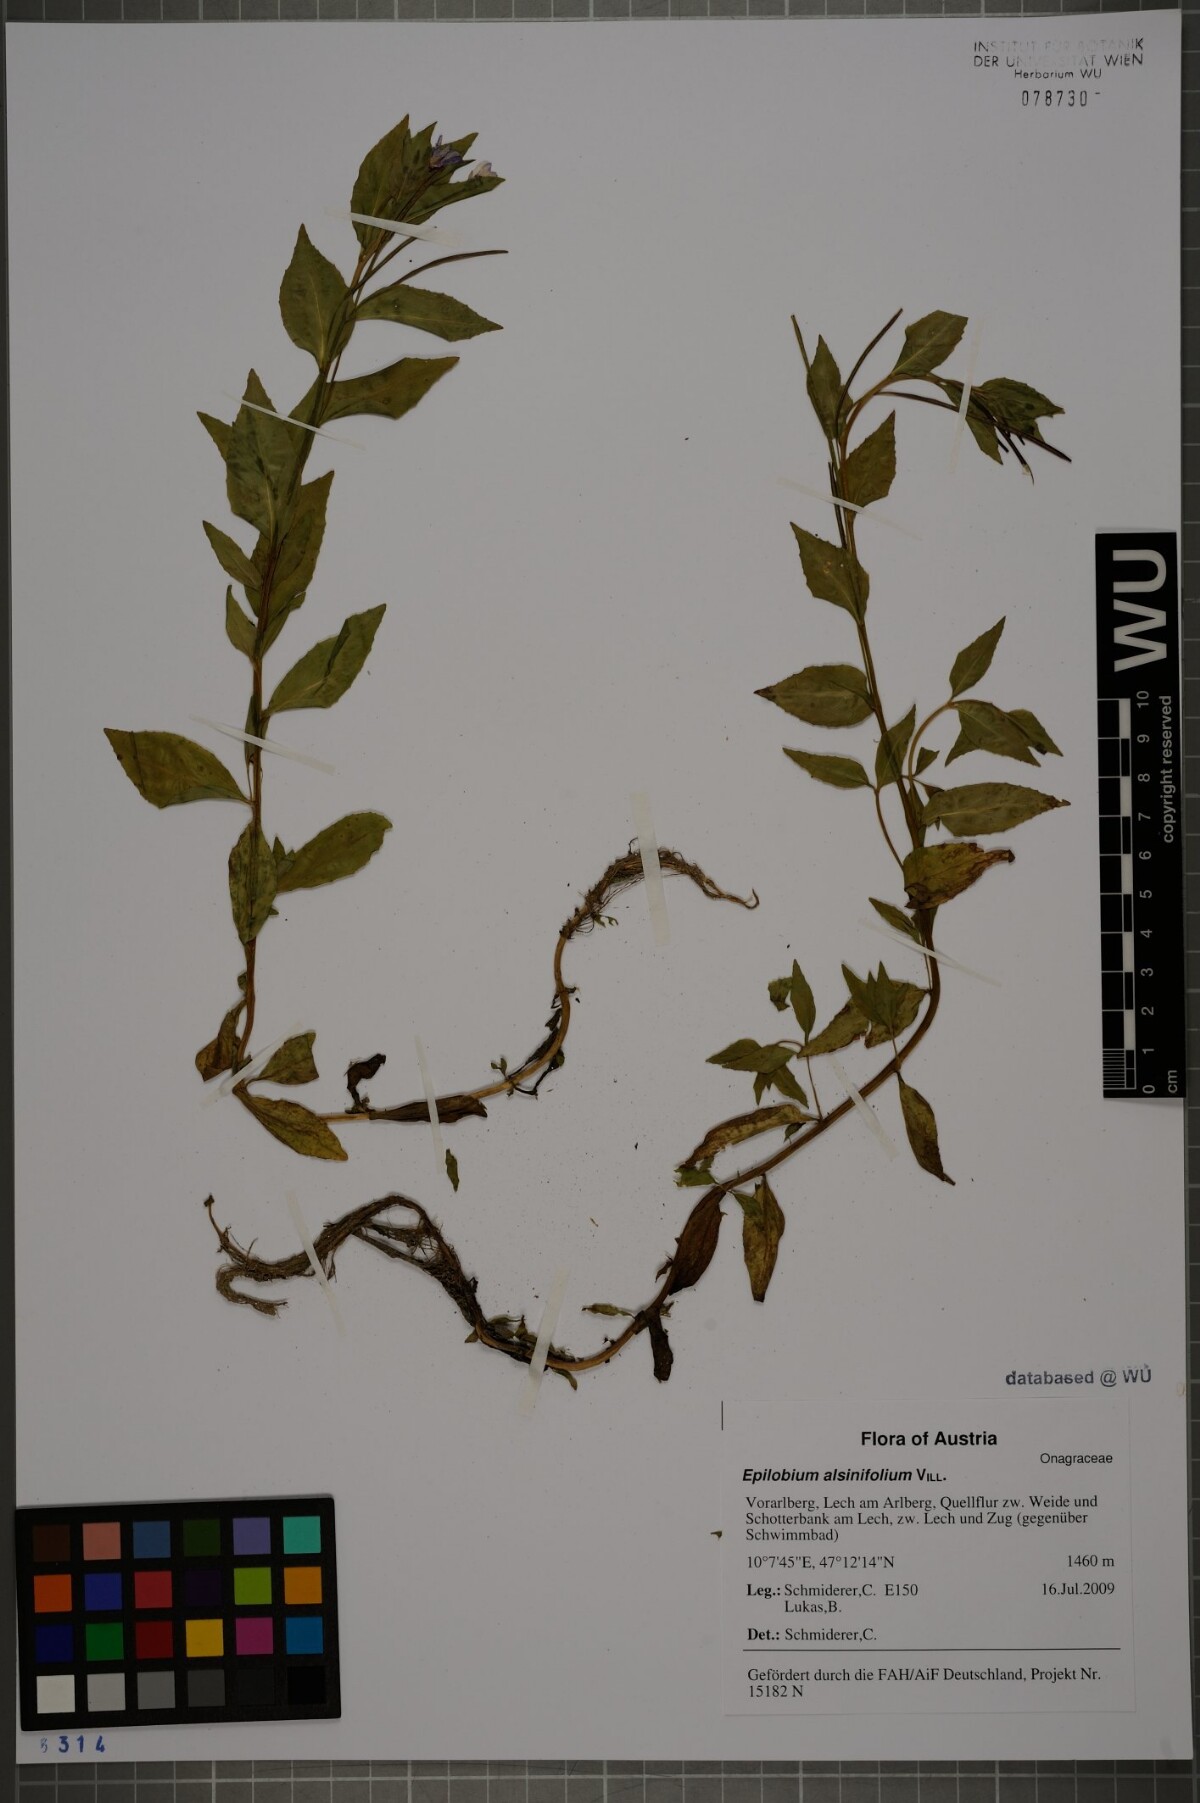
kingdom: Plantae
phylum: Tracheophyta
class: Magnoliopsida
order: Myrtales
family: Onagraceae
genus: Epilobium
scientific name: Epilobium alsinifolium
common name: Chickweed willowherb
